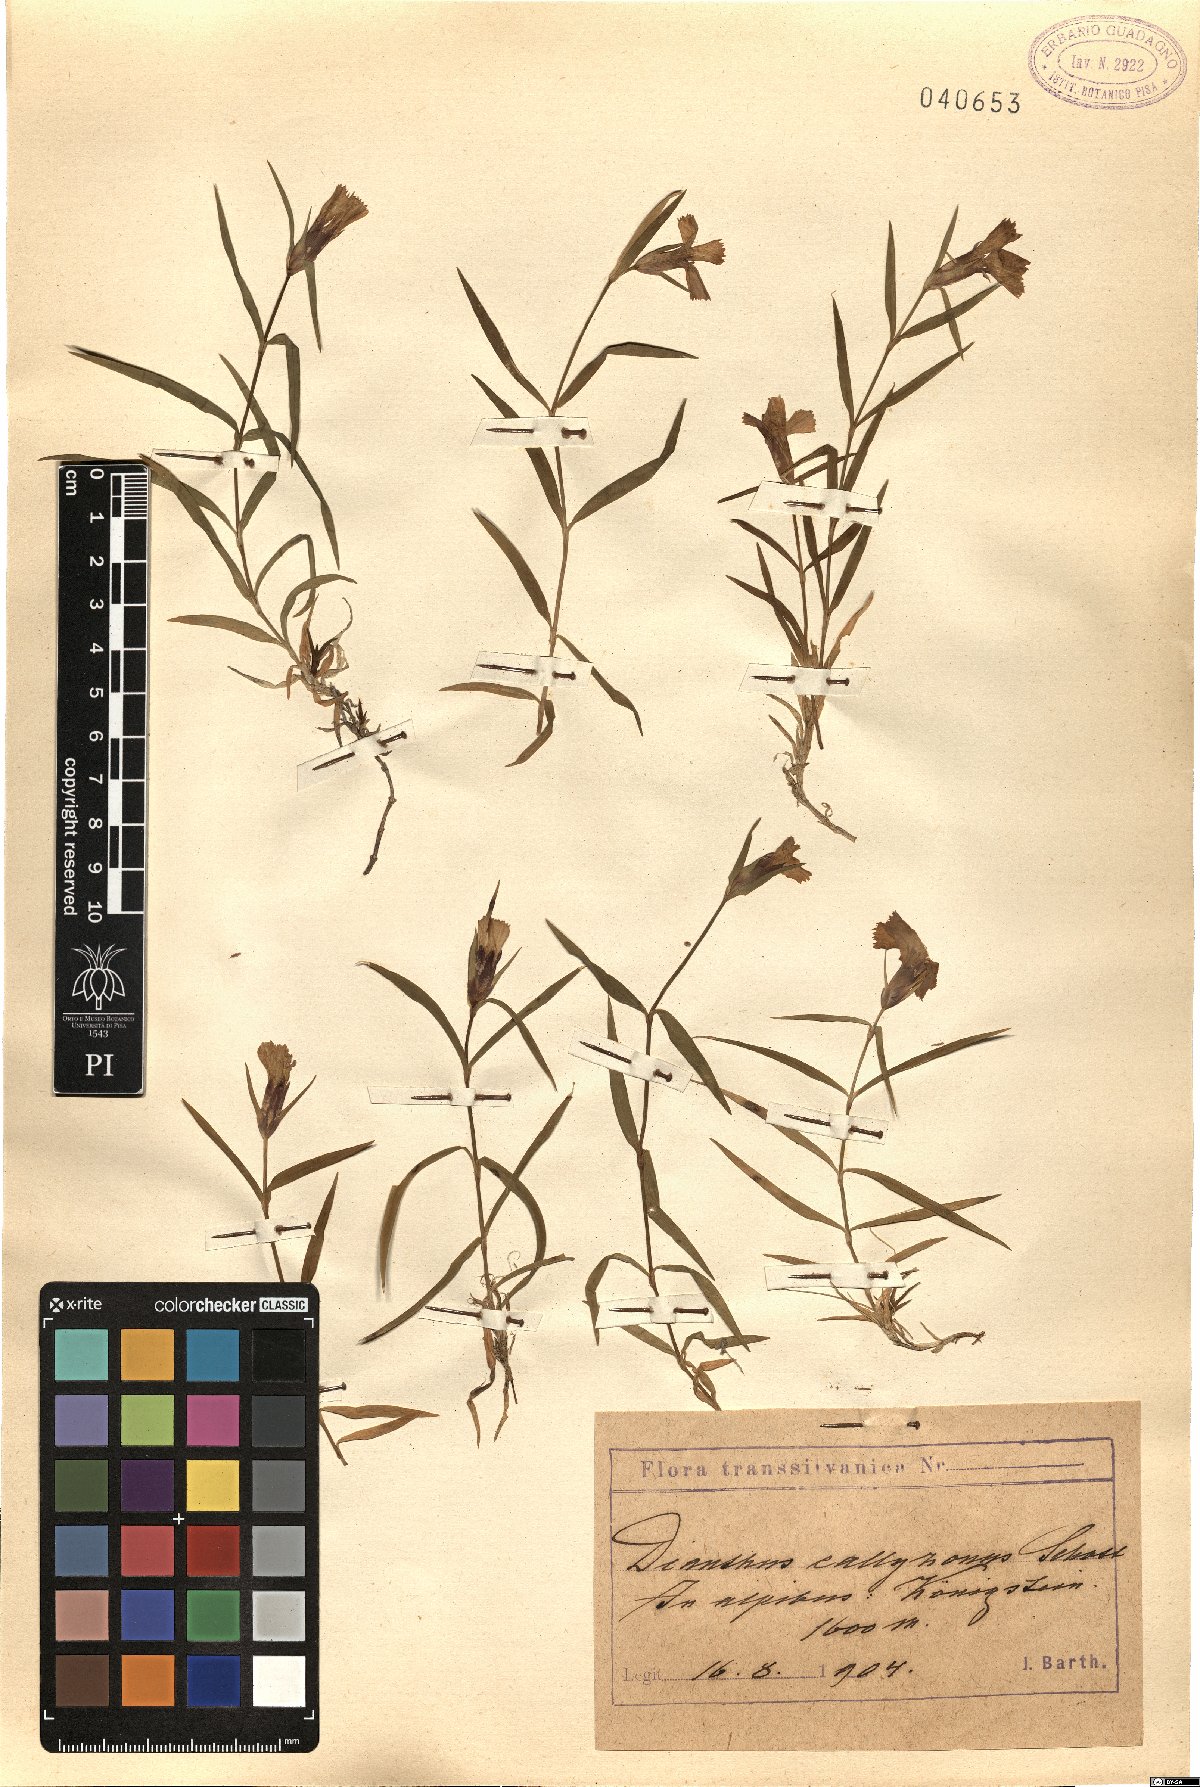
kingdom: Plantae
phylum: Tracheophyta
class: Magnoliopsida
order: Caryophyllales
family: Caryophyllaceae
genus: Dianthus
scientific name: Dianthus callizonus
